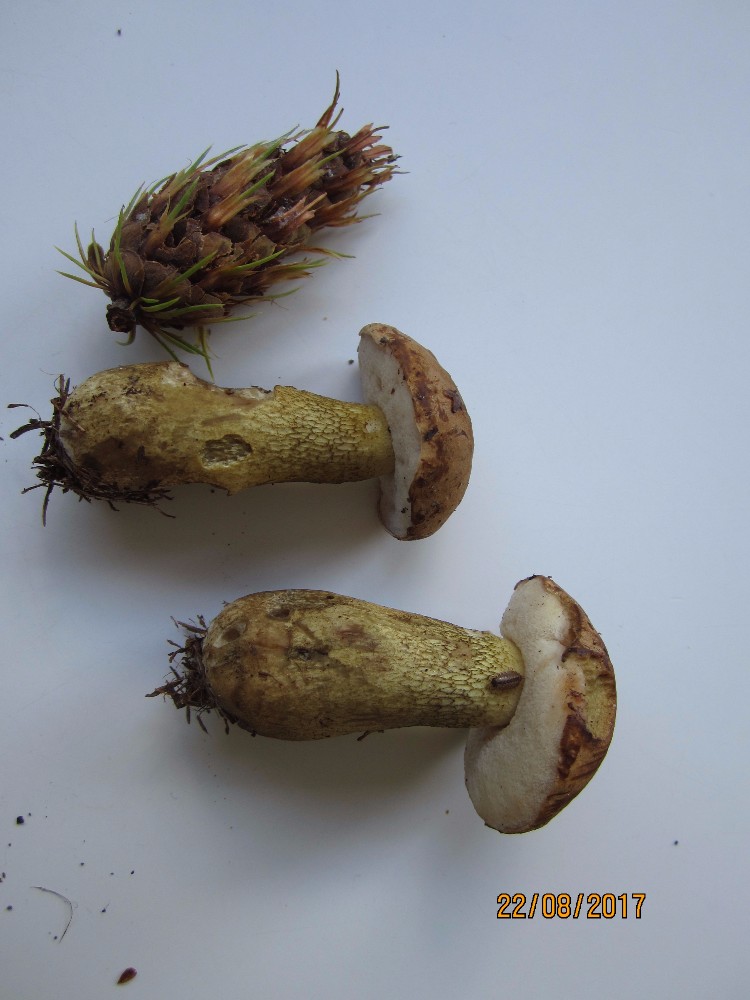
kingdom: Fungi
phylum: Basidiomycota
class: Agaricomycetes
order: Boletales
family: Boletaceae
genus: Tylopilus
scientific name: Tylopilus felleus
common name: galderørhat
